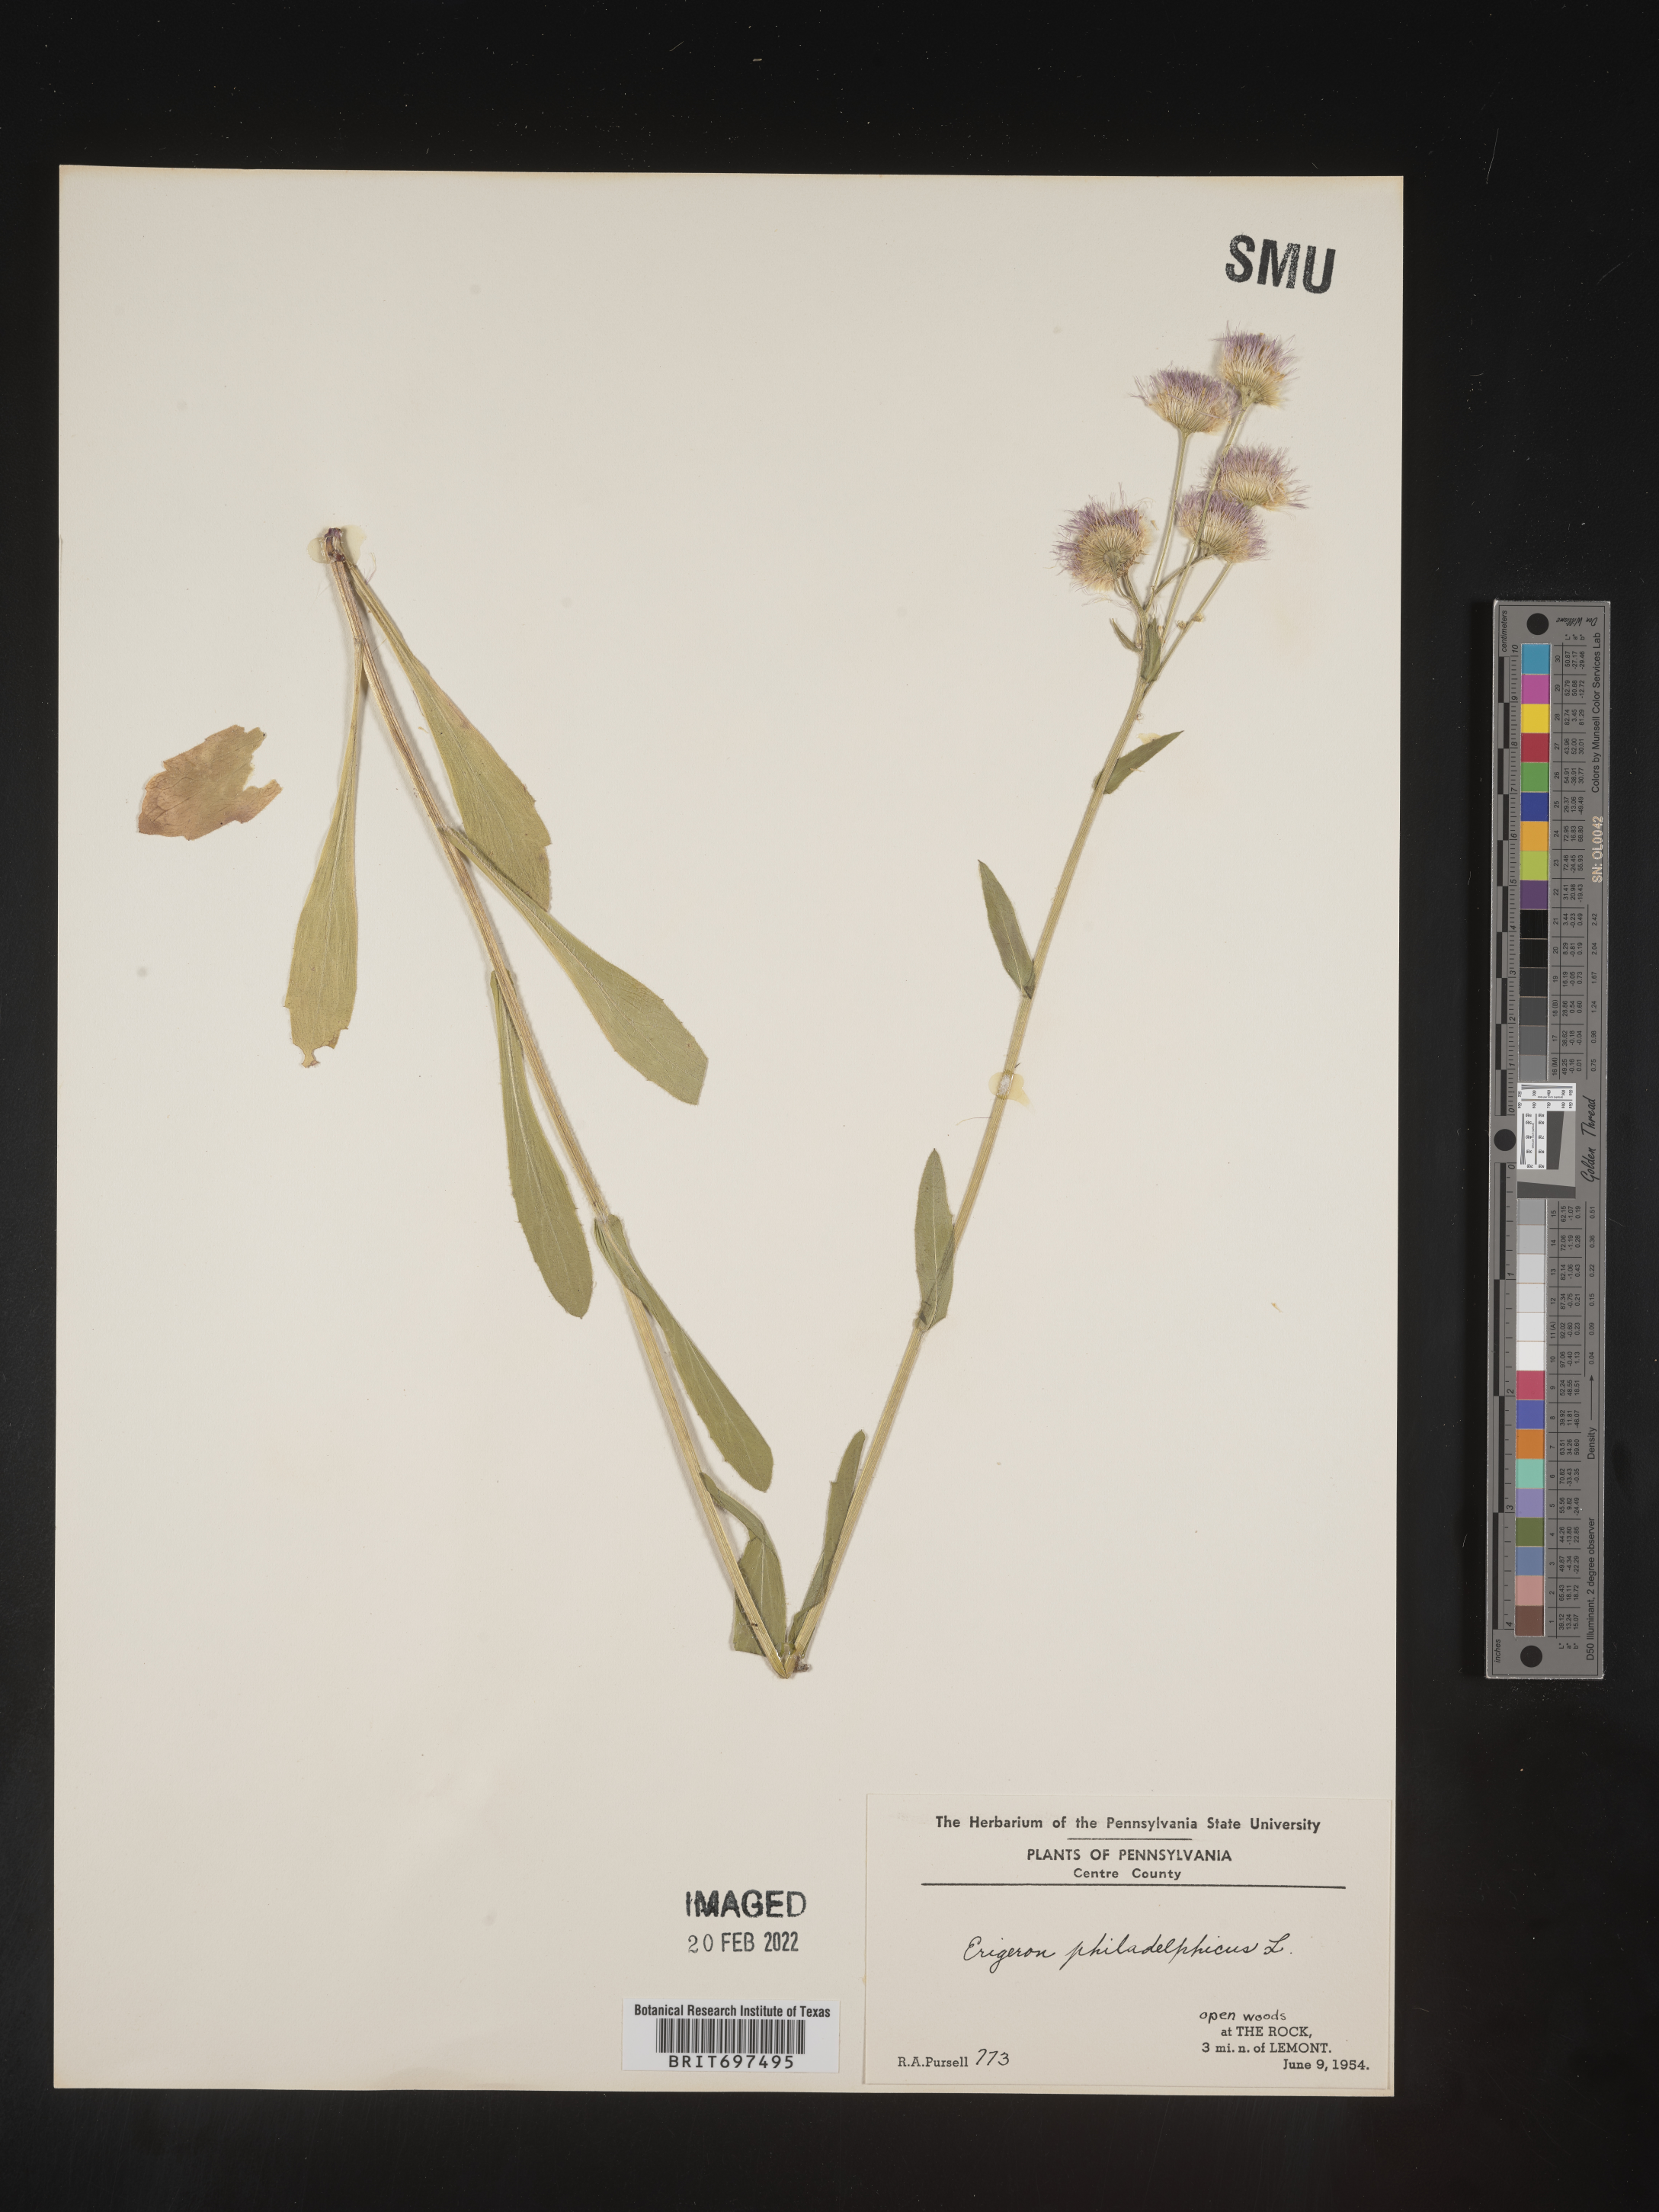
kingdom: Plantae
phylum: Tracheophyta
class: Magnoliopsida
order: Asterales
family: Asteraceae
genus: Erigeron
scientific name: Erigeron philadelphicus
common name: Robin's-plantain
